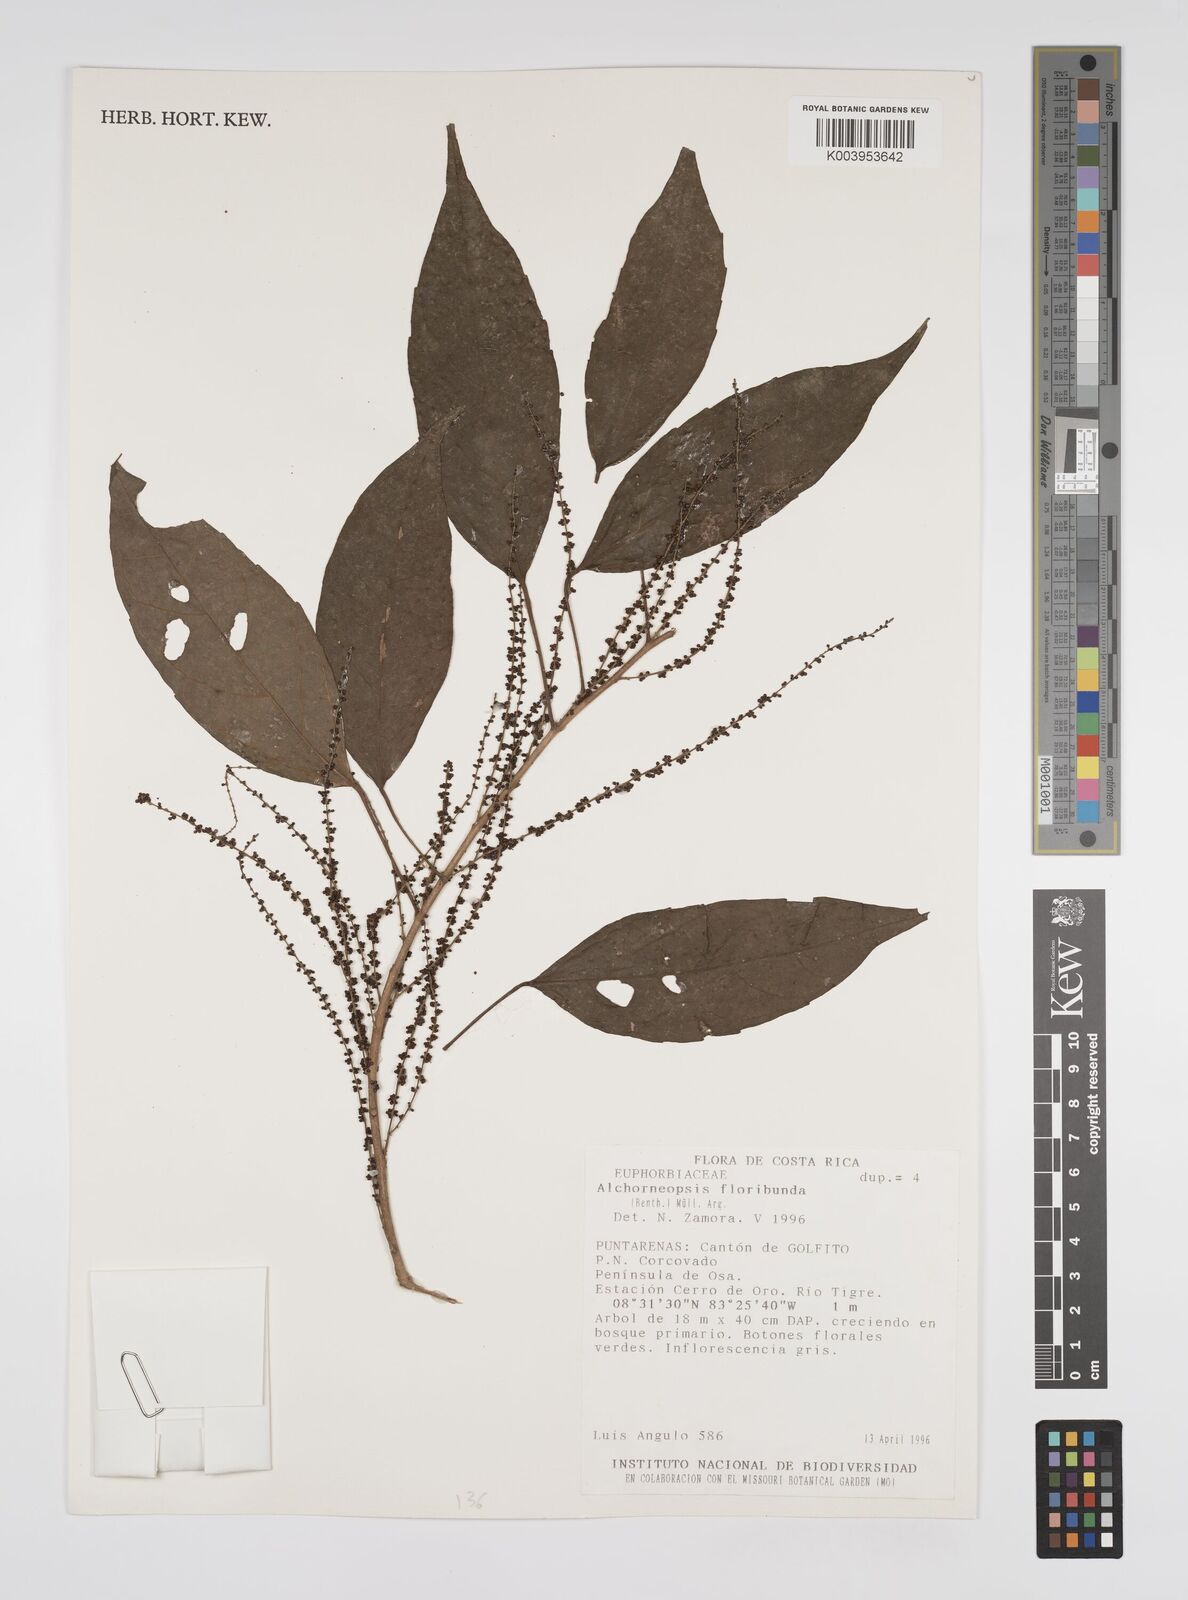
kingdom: Plantae
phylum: Tracheophyta
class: Magnoliopsida
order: Malpighiales
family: Euphorbiaceae
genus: Alchorneopsis
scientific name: Alchorneopsis floribunda
